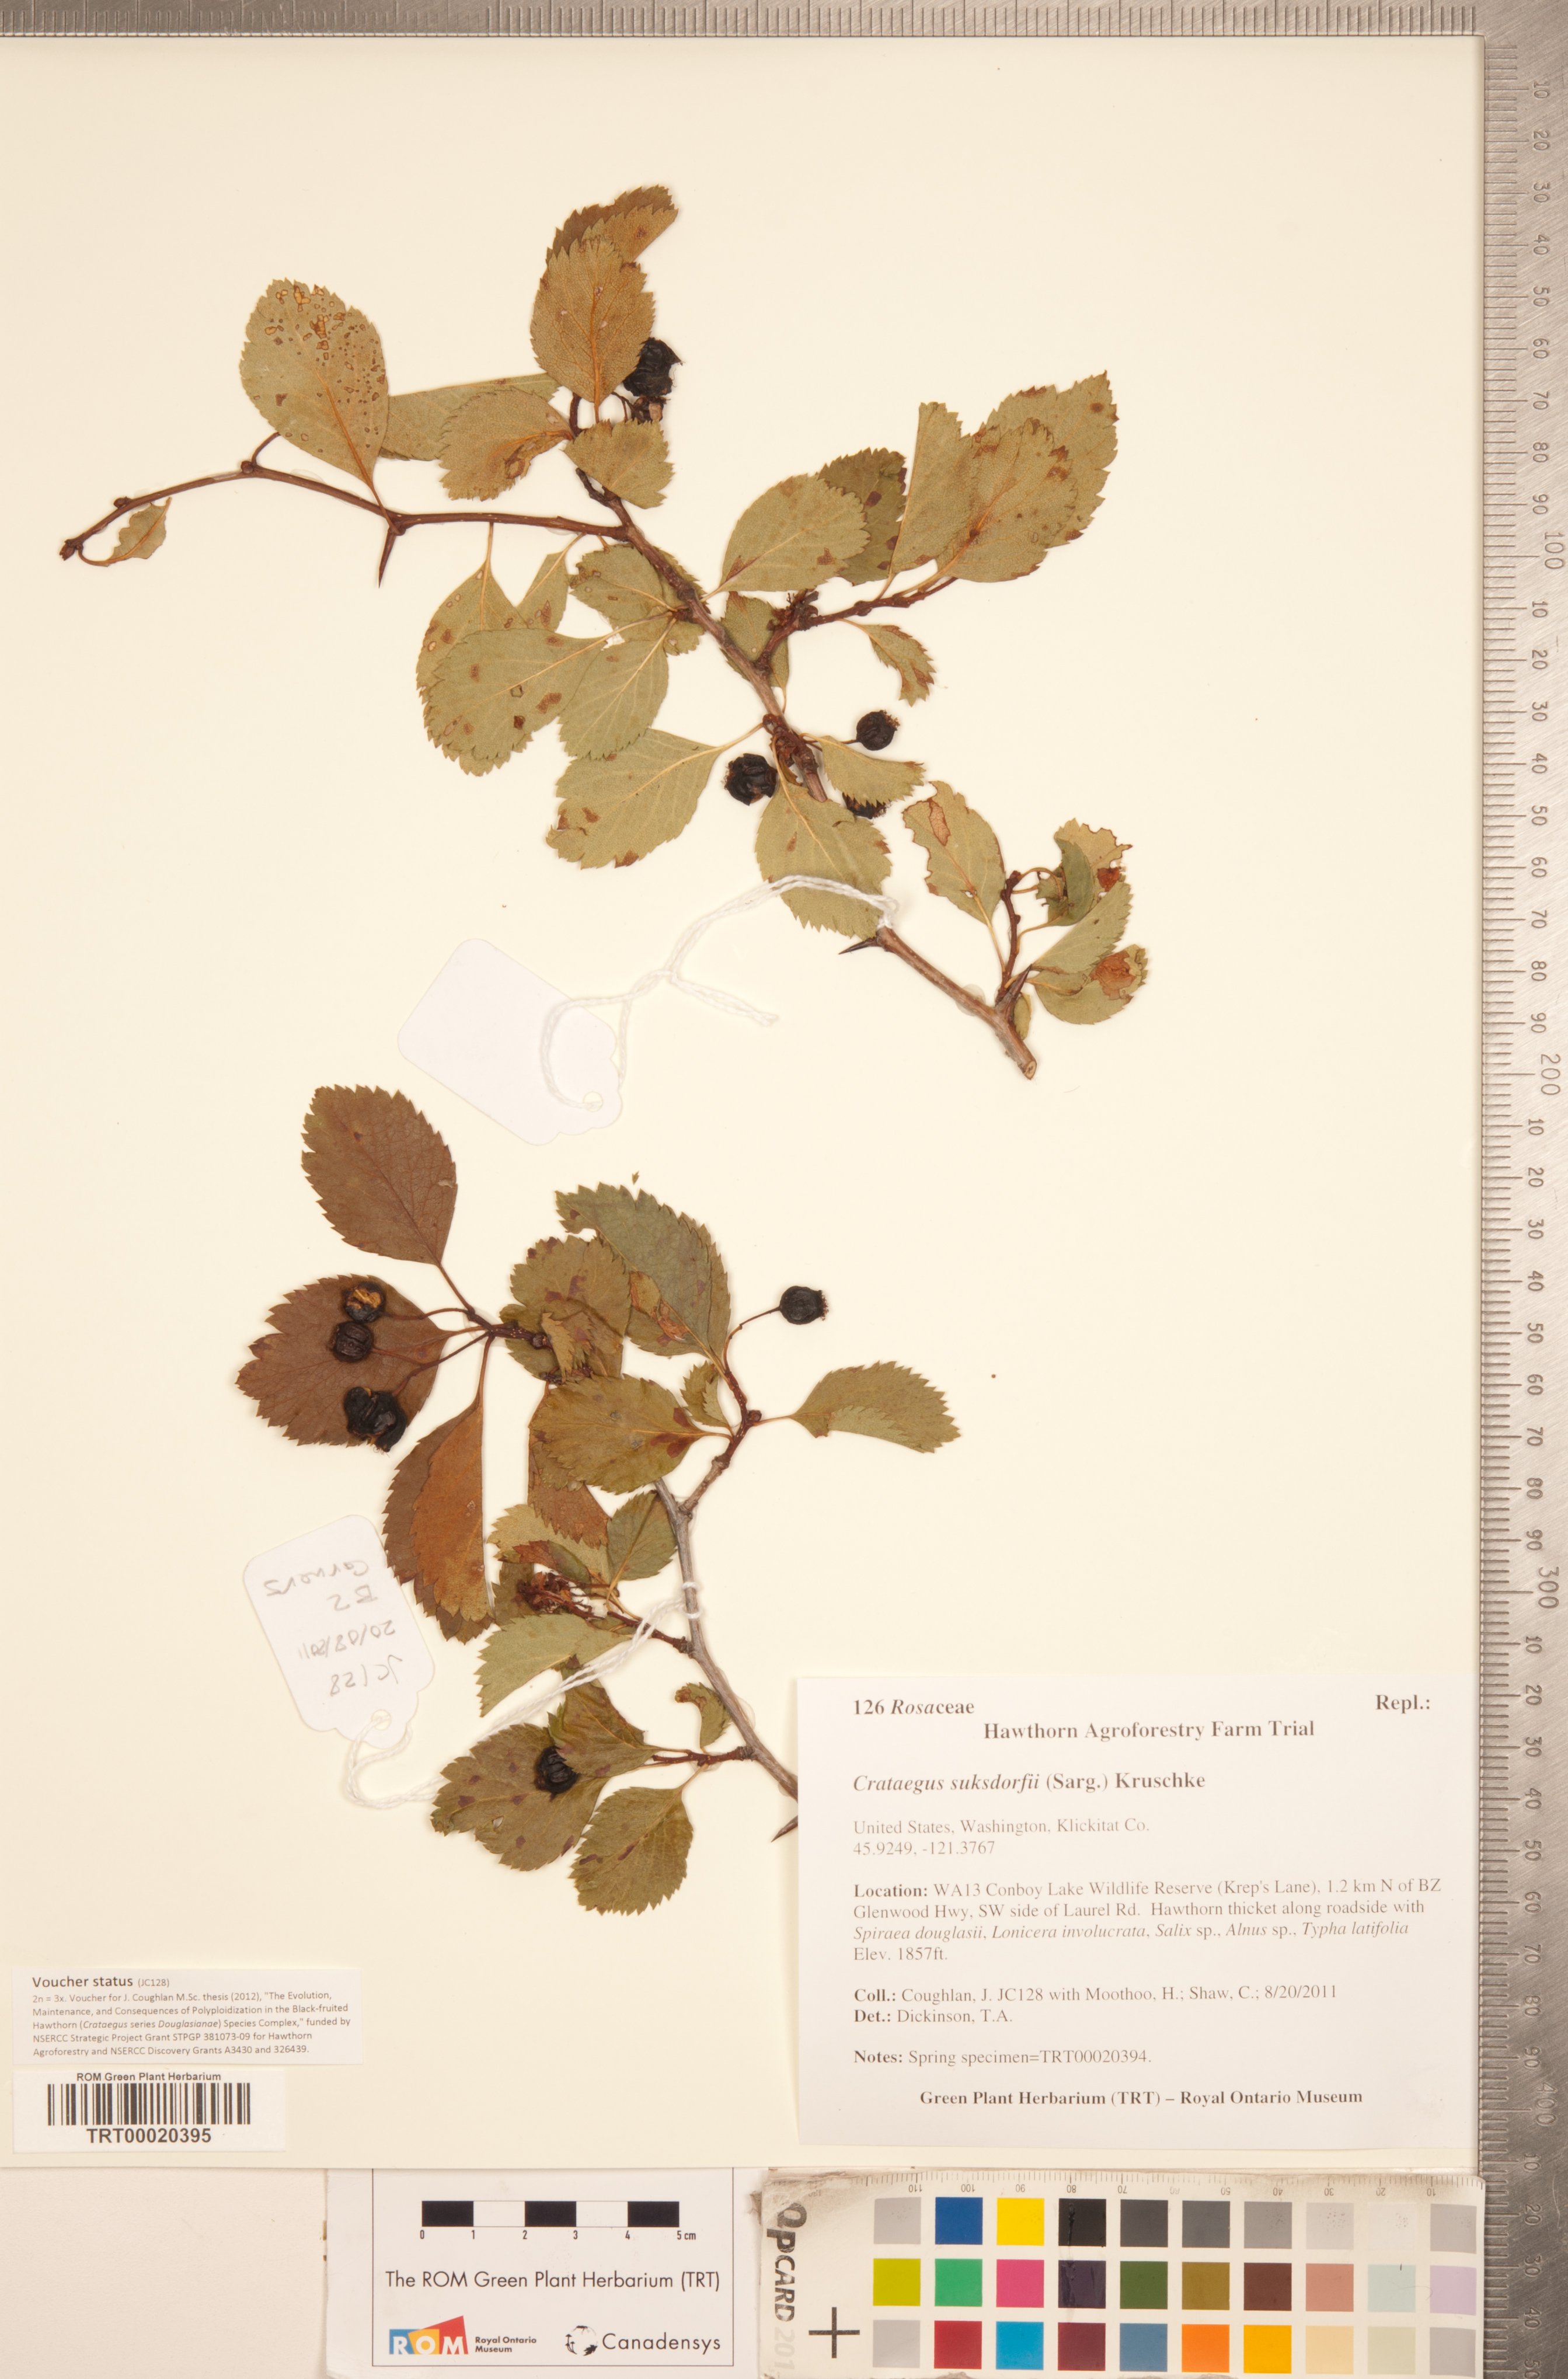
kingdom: Plantae
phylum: Tracheophyta
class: Magnoliopsida
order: Rosales
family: Rosaceae
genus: Crataegus
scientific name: Crataegus gaylussacia
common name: Huckleberry hawthorn
